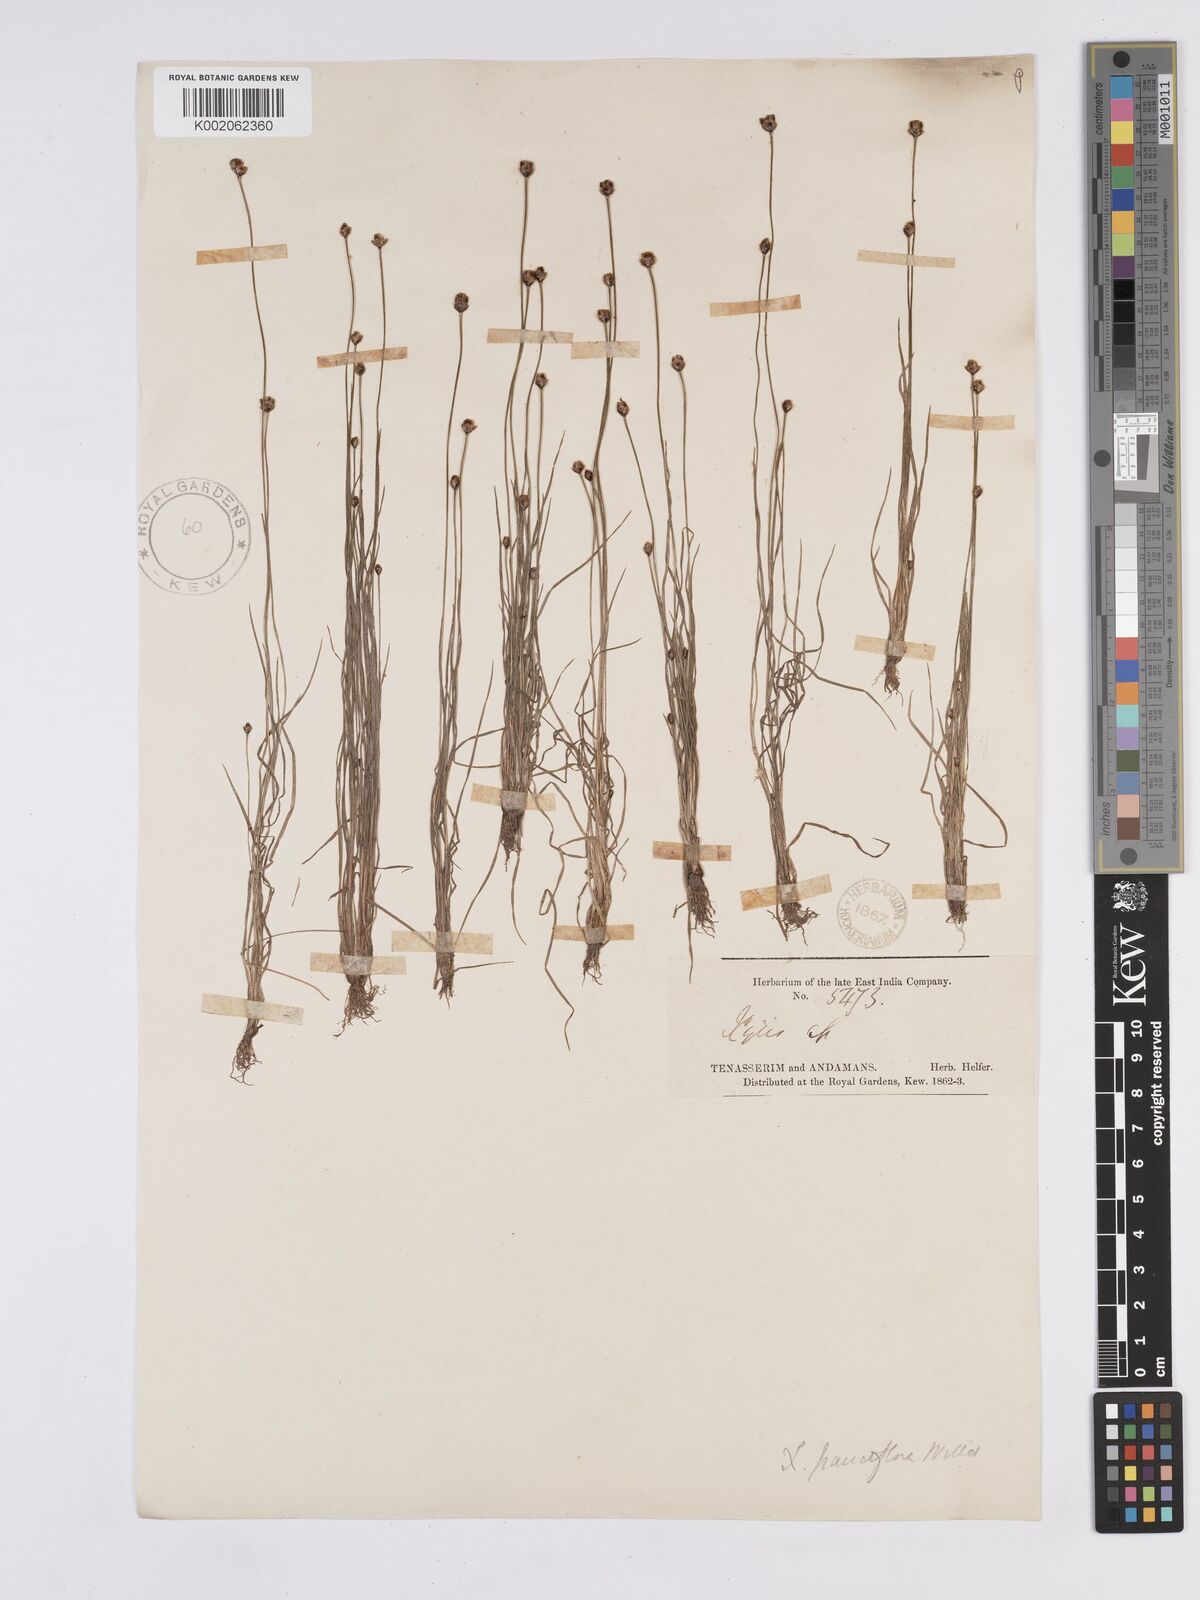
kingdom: Plantae
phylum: Tracheophyta
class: Liliopsida
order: Poales
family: Xyridaceae
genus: Xyris
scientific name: Xyris pauciflora
